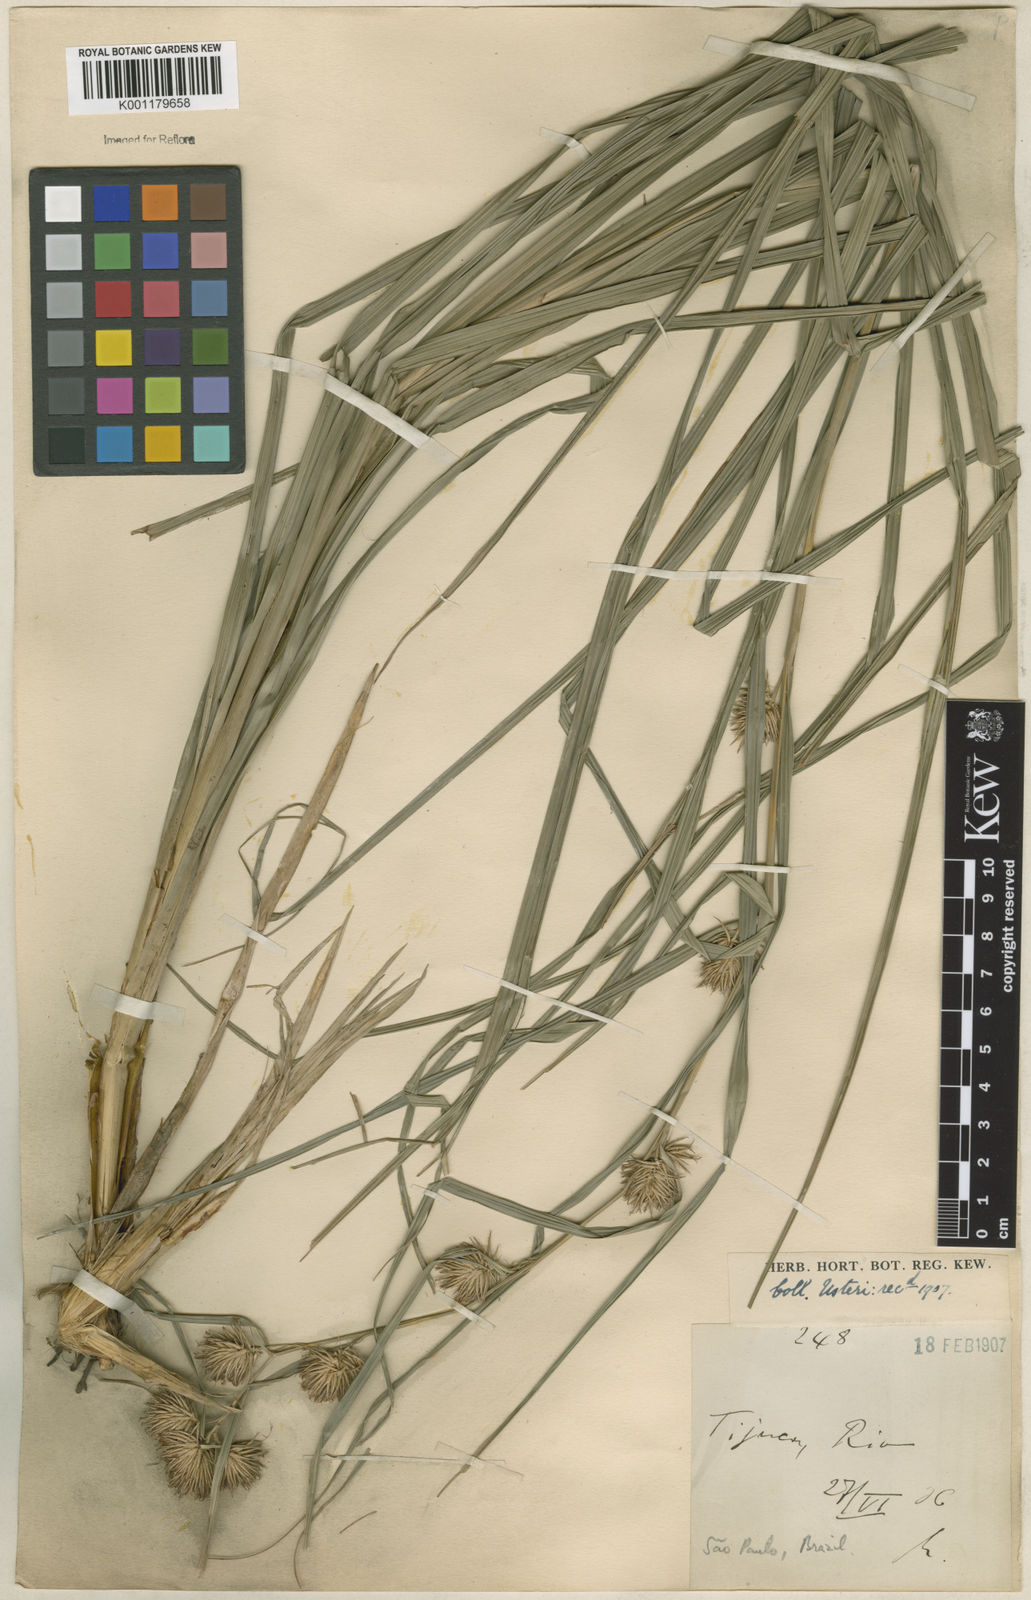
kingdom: Plantae
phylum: Tracheophyta
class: Liliopsida
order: Poales
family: Cyperaceae
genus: Rhynchospora
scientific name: Rhynchospora exaltata
